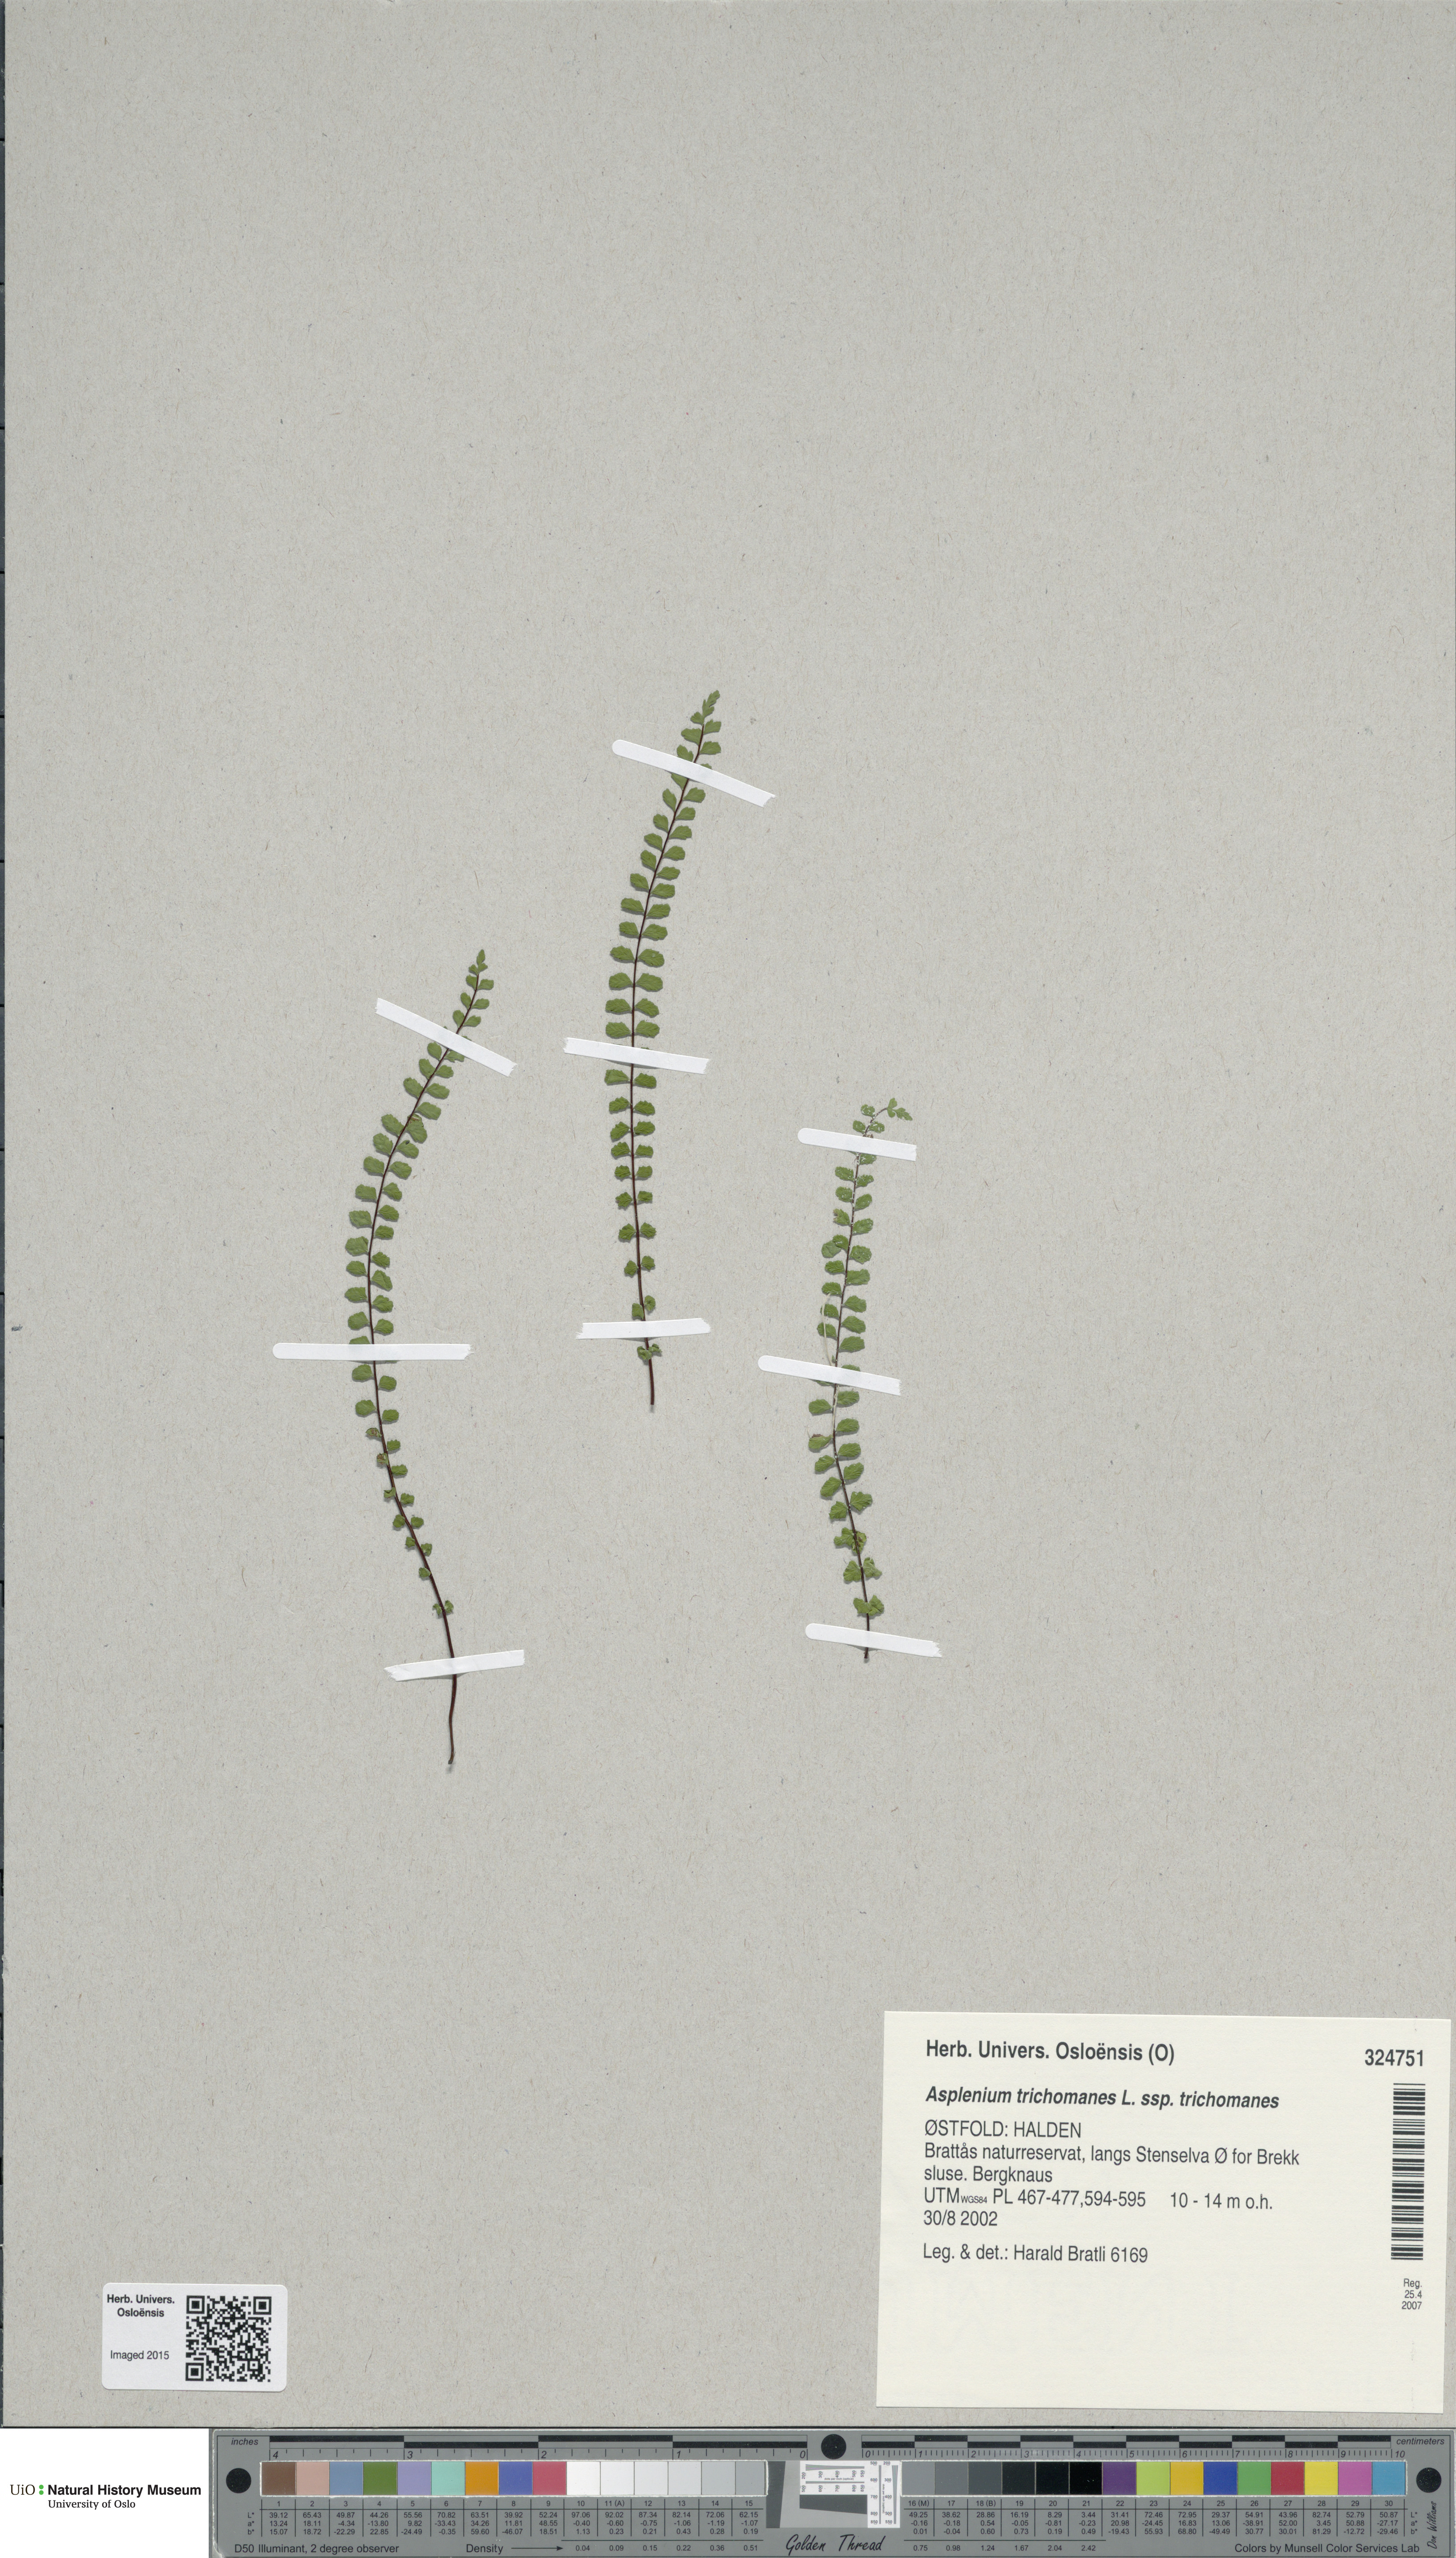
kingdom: Plantae
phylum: Tracheophyta
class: Polypodiopsida
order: Polypodiales
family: Aspleniaceae
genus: Asplenium
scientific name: Asplenium trichomanes
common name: Maidenhair spleenwort
